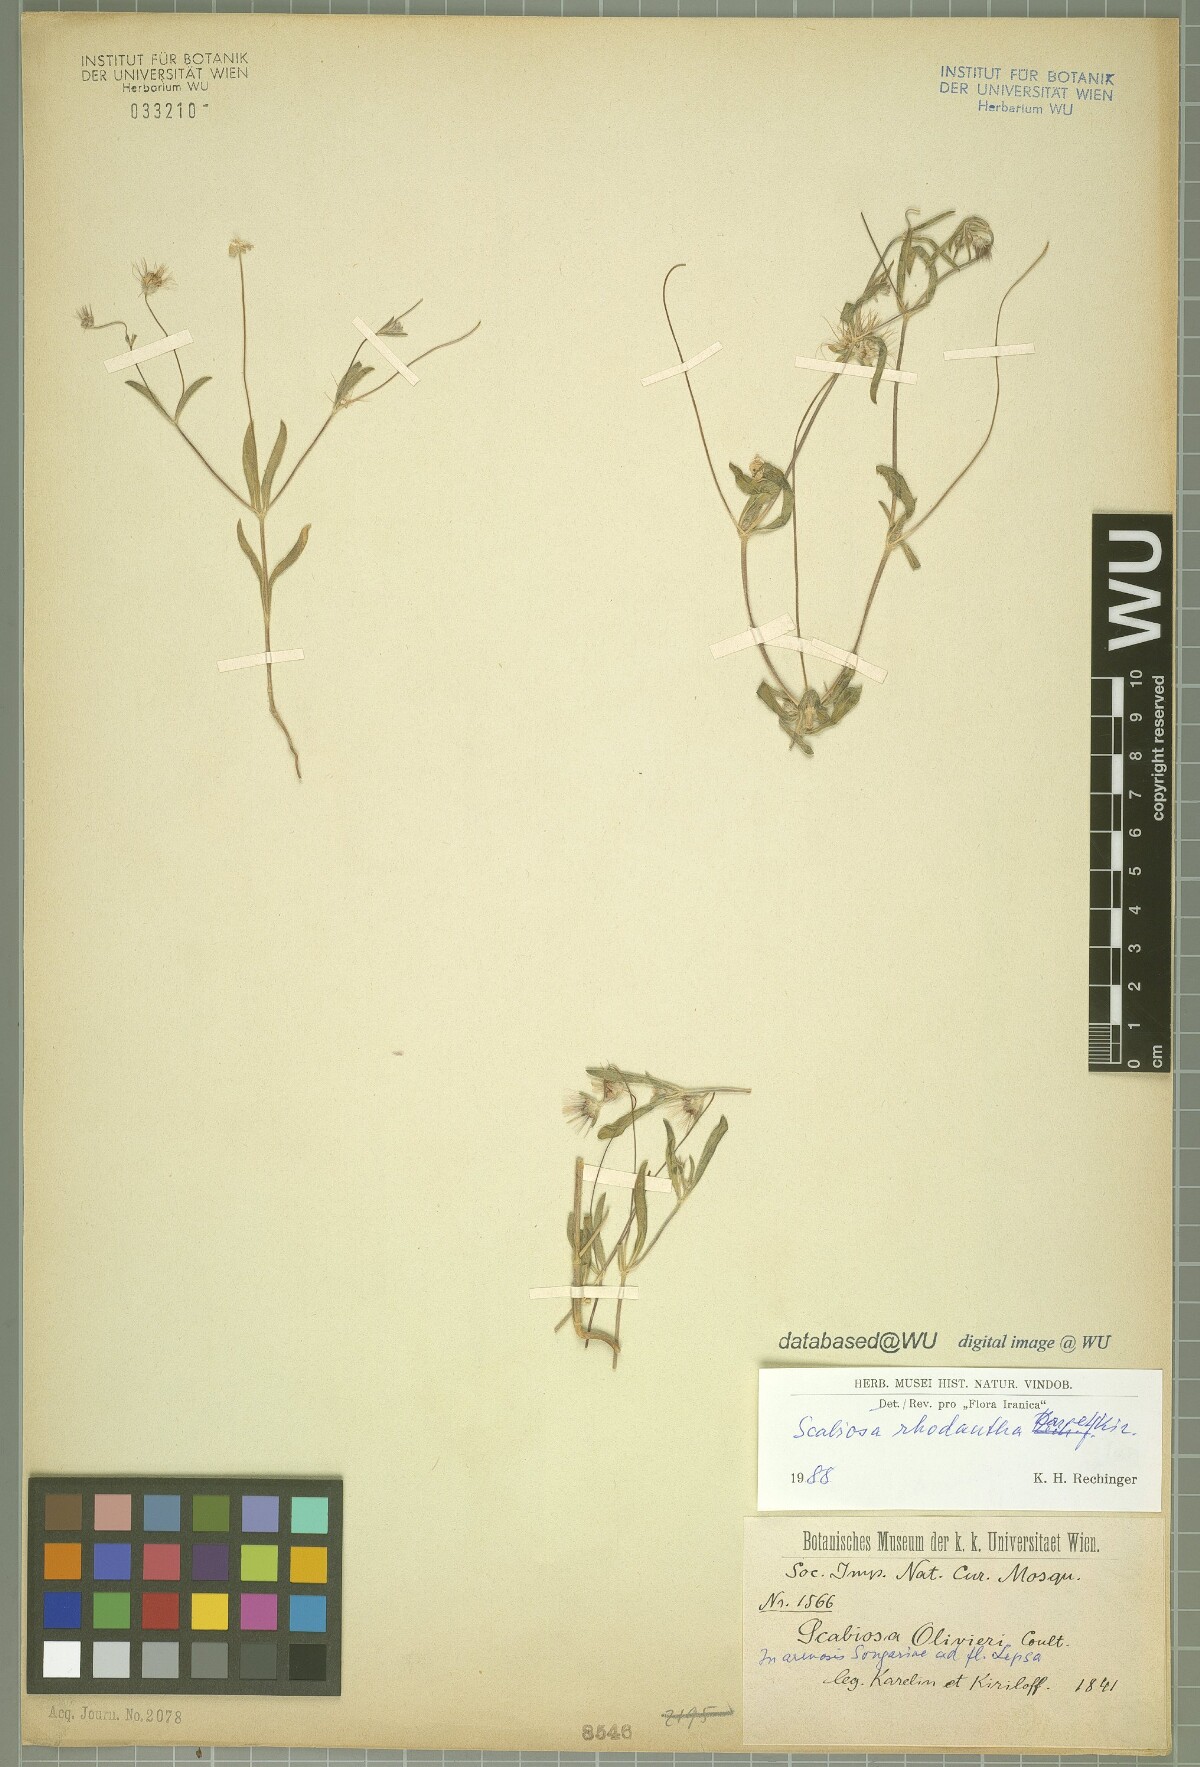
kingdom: Plantae
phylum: Tracheophyta
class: Magnoliopsida
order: Dipsacales
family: Caprifoliaceae
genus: Lomelosia
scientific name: Lomelosia rhodantha
